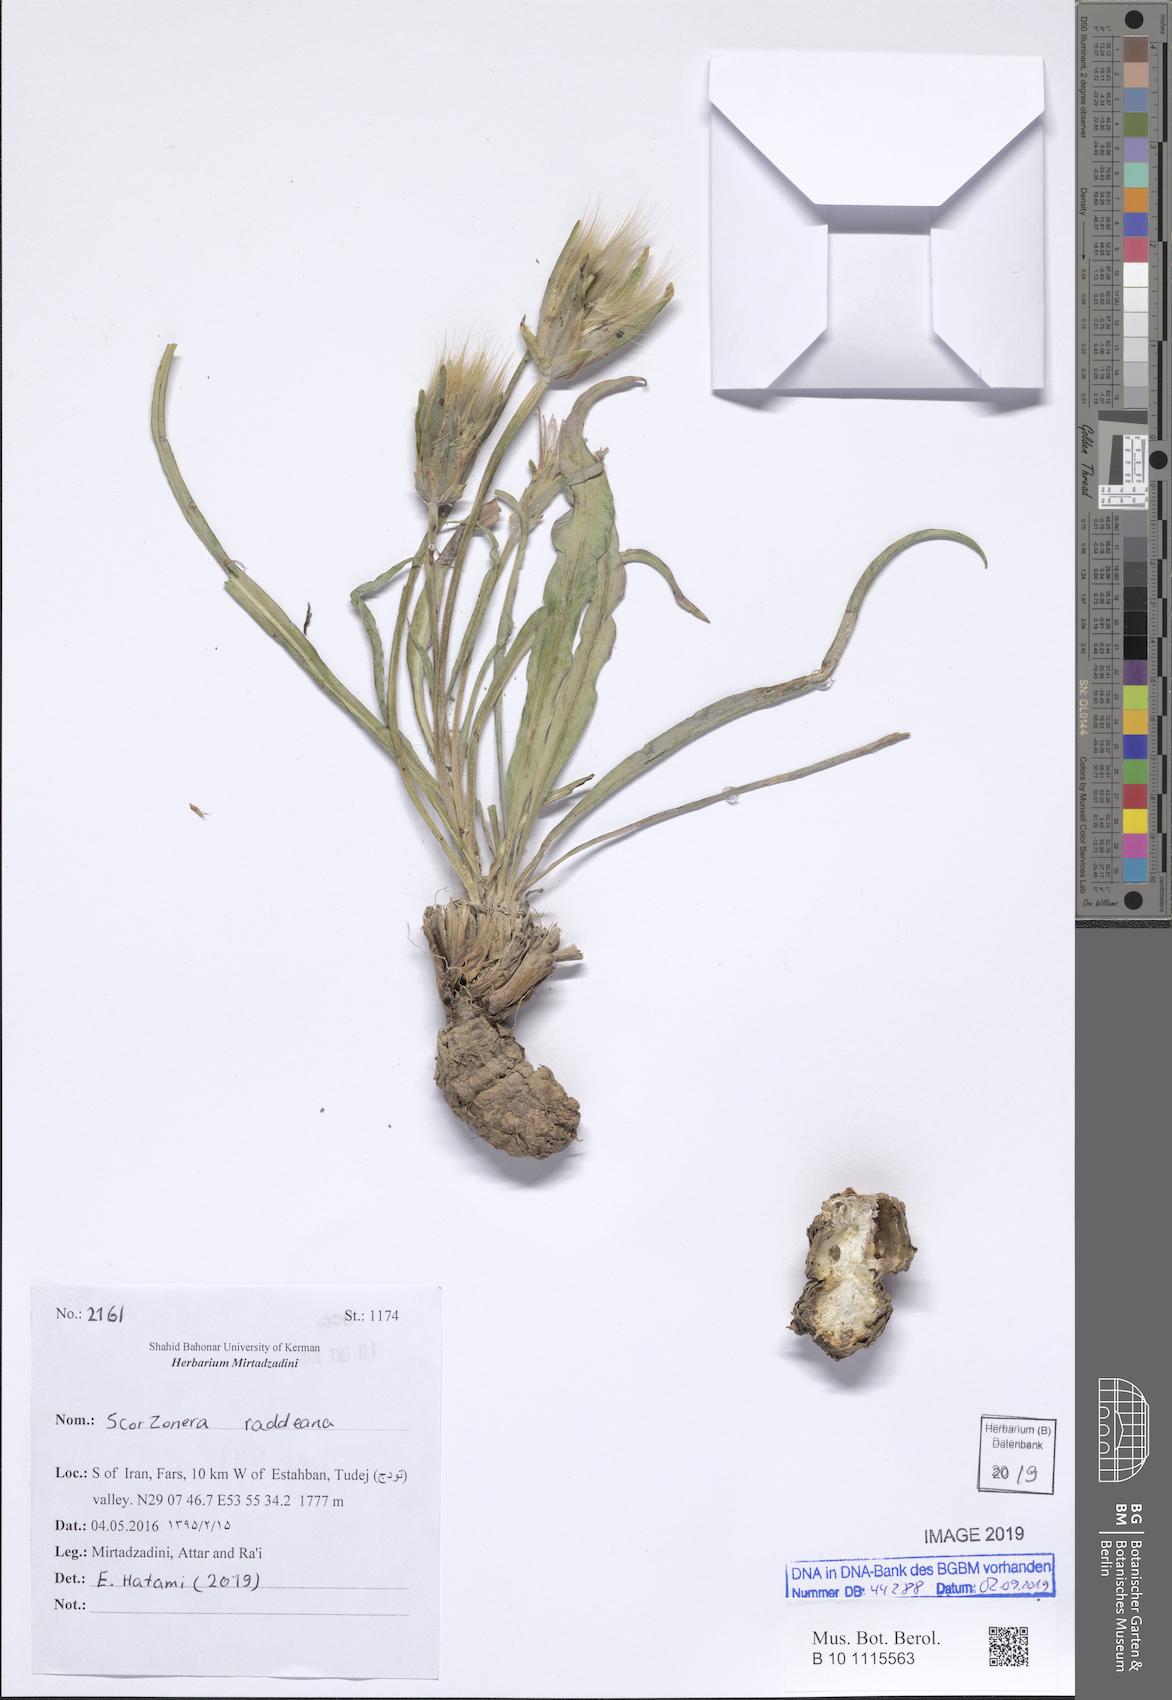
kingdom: Plantae
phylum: Tracheophyta
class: Magnoliopsida
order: Asterales
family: Asteraceae
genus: Candollea
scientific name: Candollea raddeana
